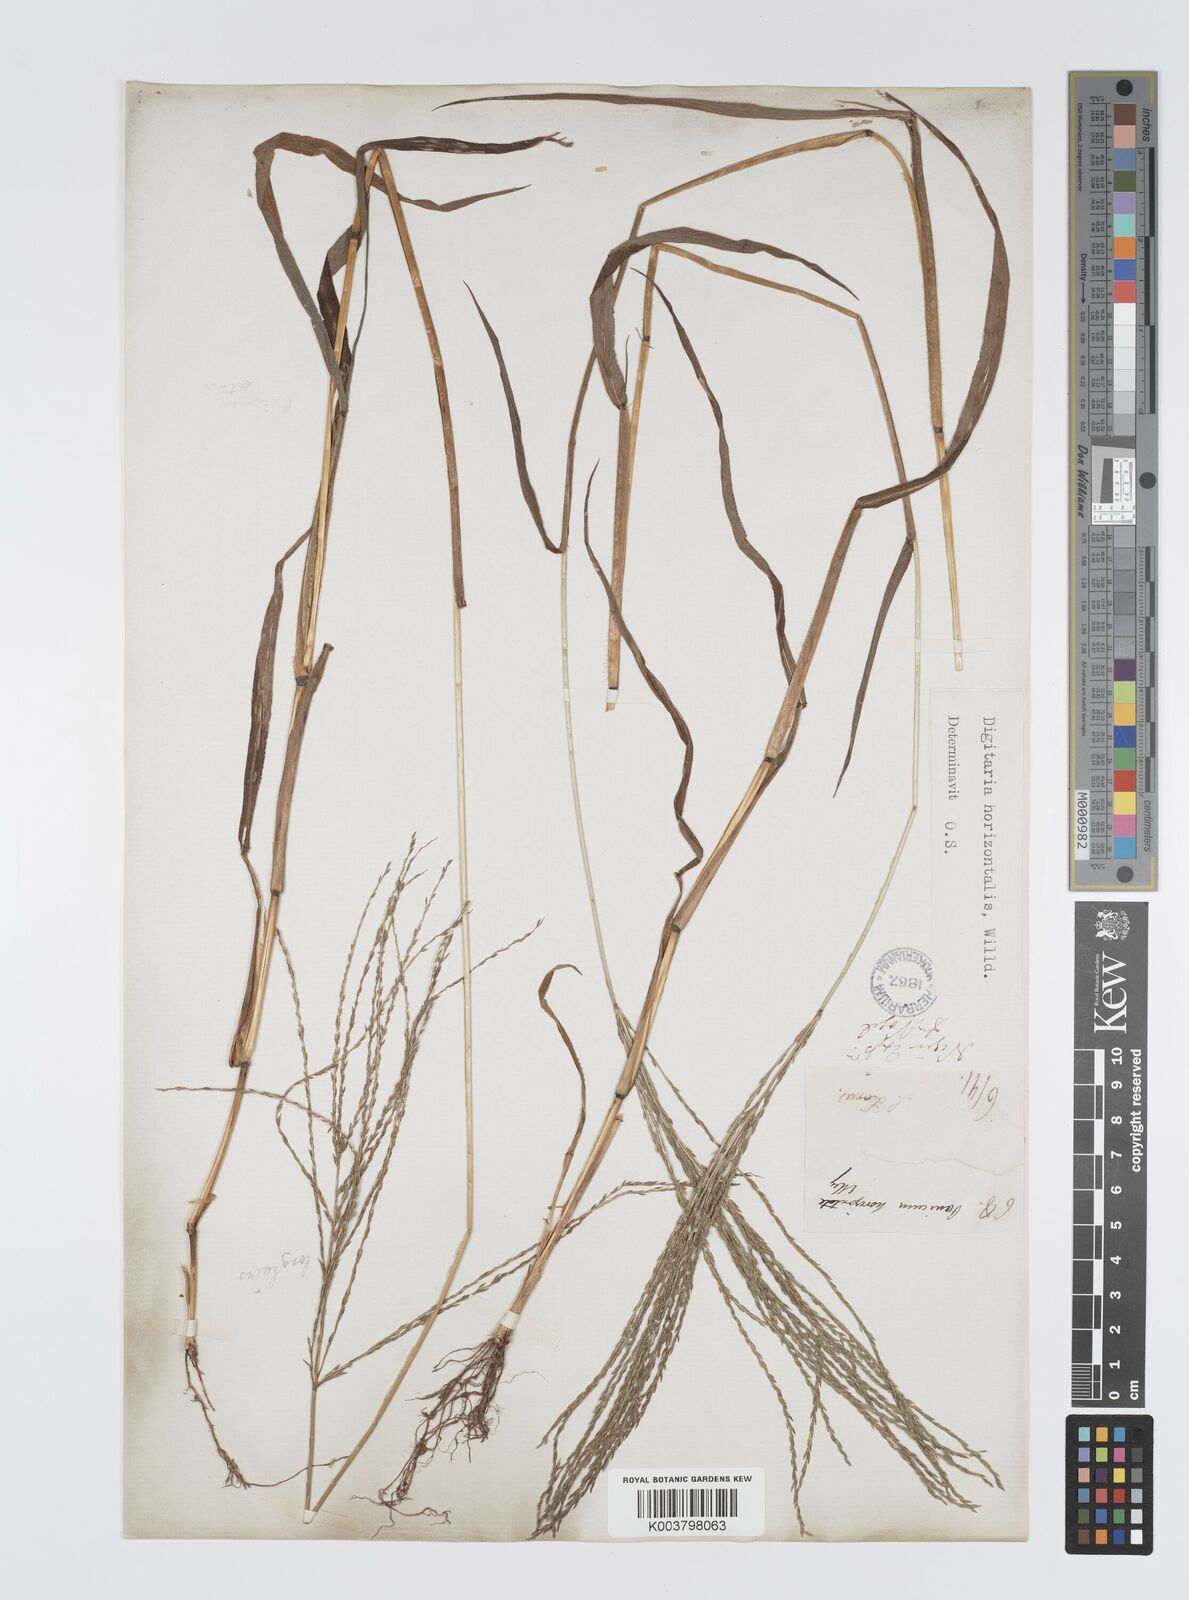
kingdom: Plantae
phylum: Tracheophyta
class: Liliopsida
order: Poales
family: Poaceae
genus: Digitaria
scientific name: Digitaria horizontalis
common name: Jamaican crabgrass
